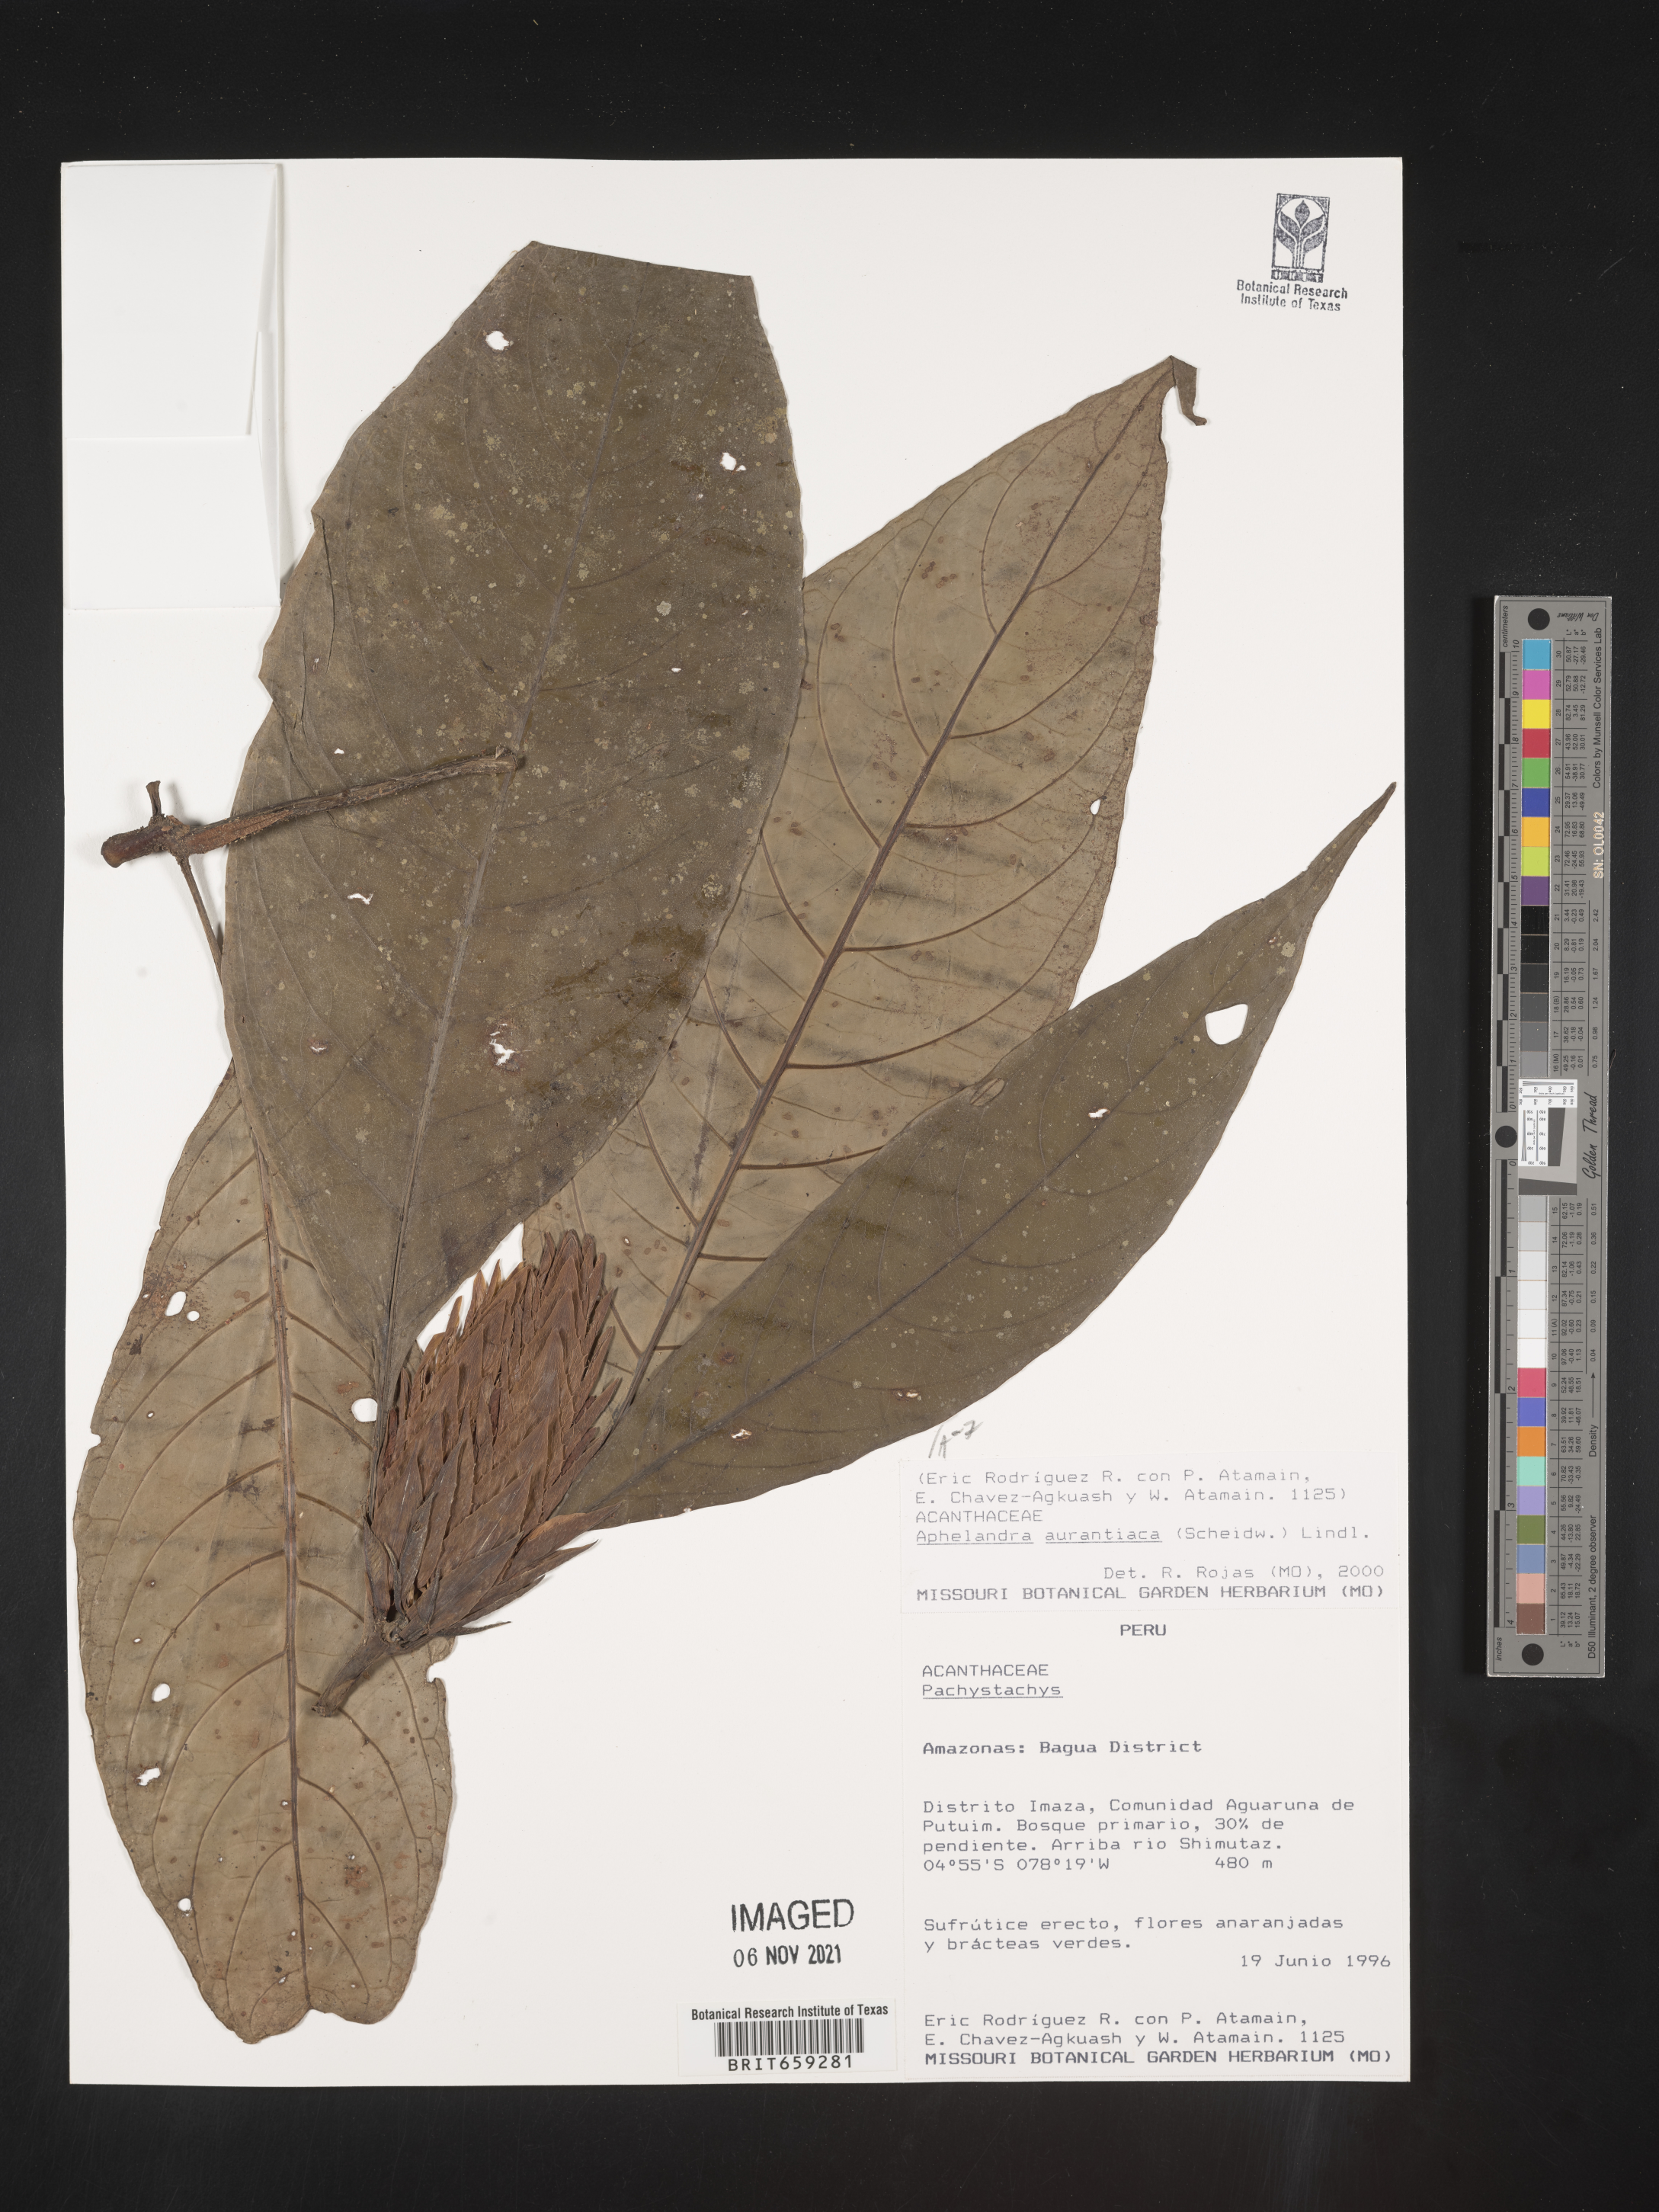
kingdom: Plantae
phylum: Tracheophyta
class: Magnoliopsida
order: Lamiales
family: Acanthaceae
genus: Aphelandra
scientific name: Aphelandra
